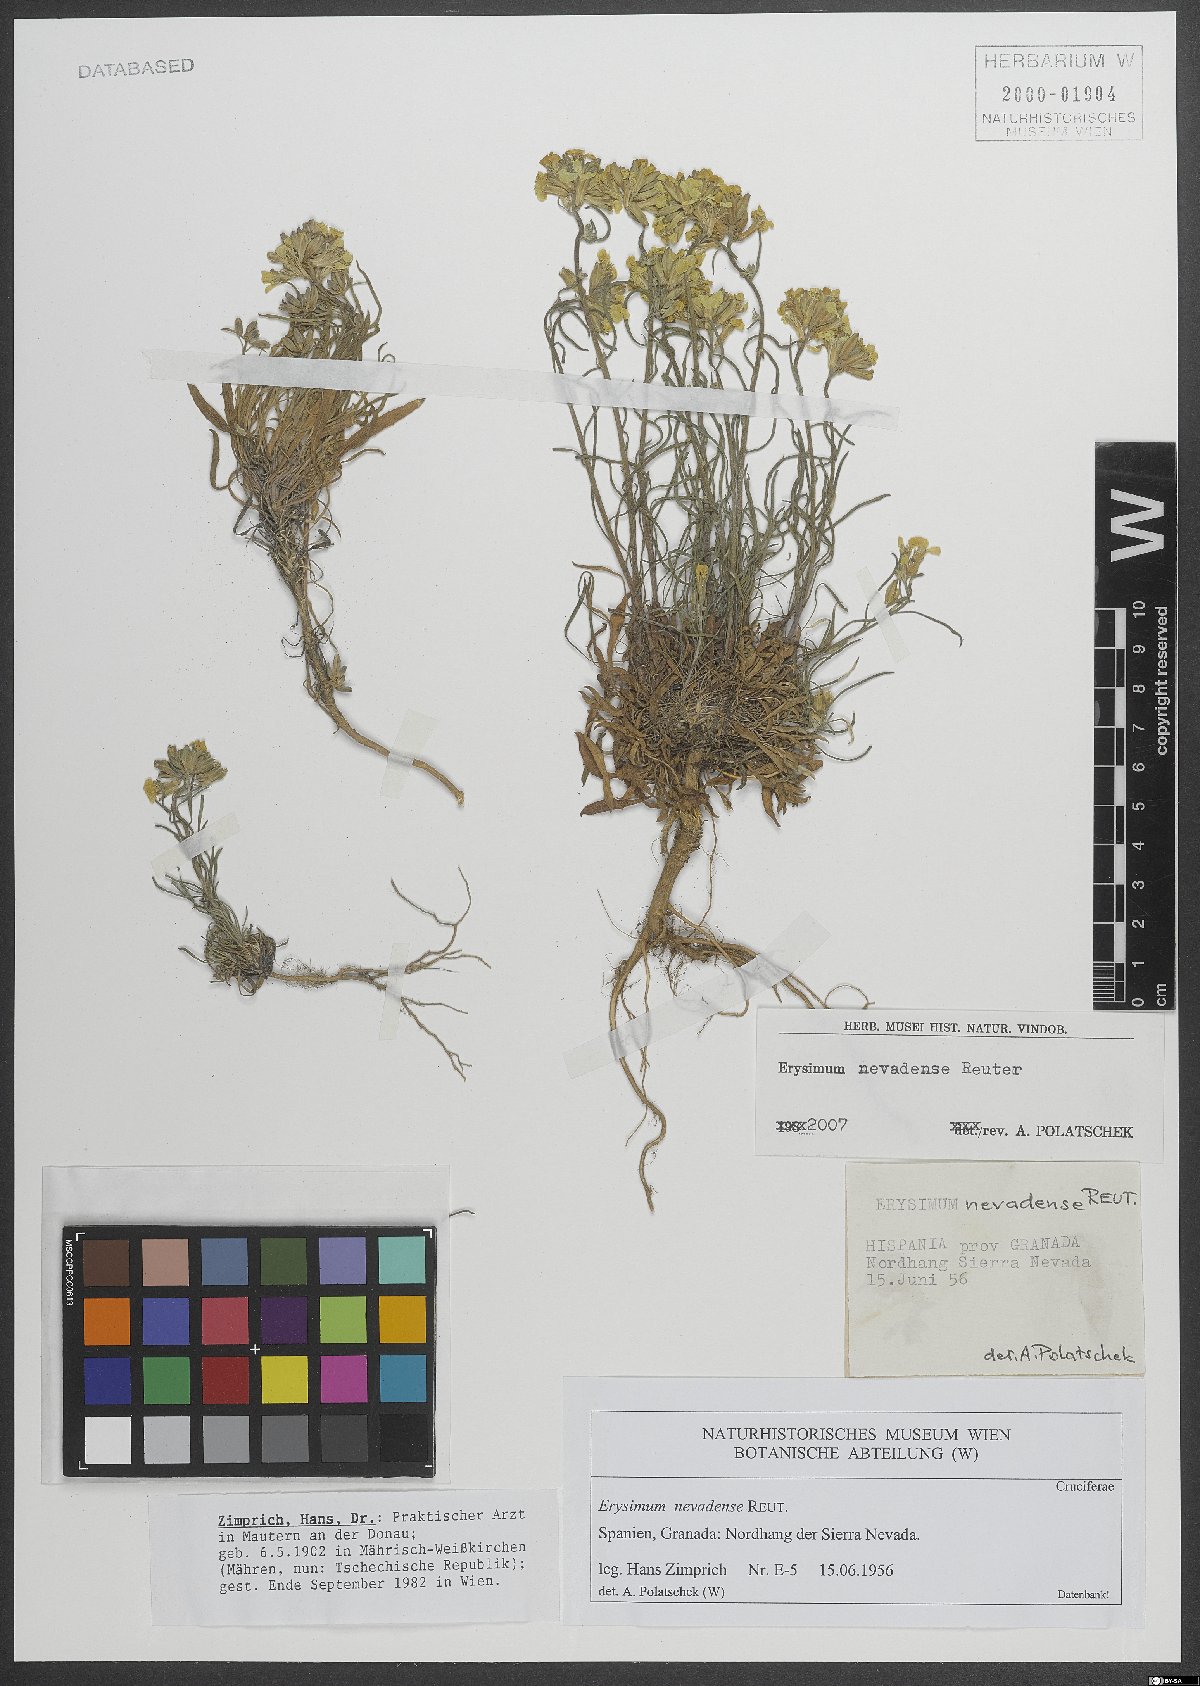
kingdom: Plantae
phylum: Tracheophyta
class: Magnoliopsida
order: Brassicales
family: Brassicaceae
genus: Erysimum
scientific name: Erysimum nevadense
